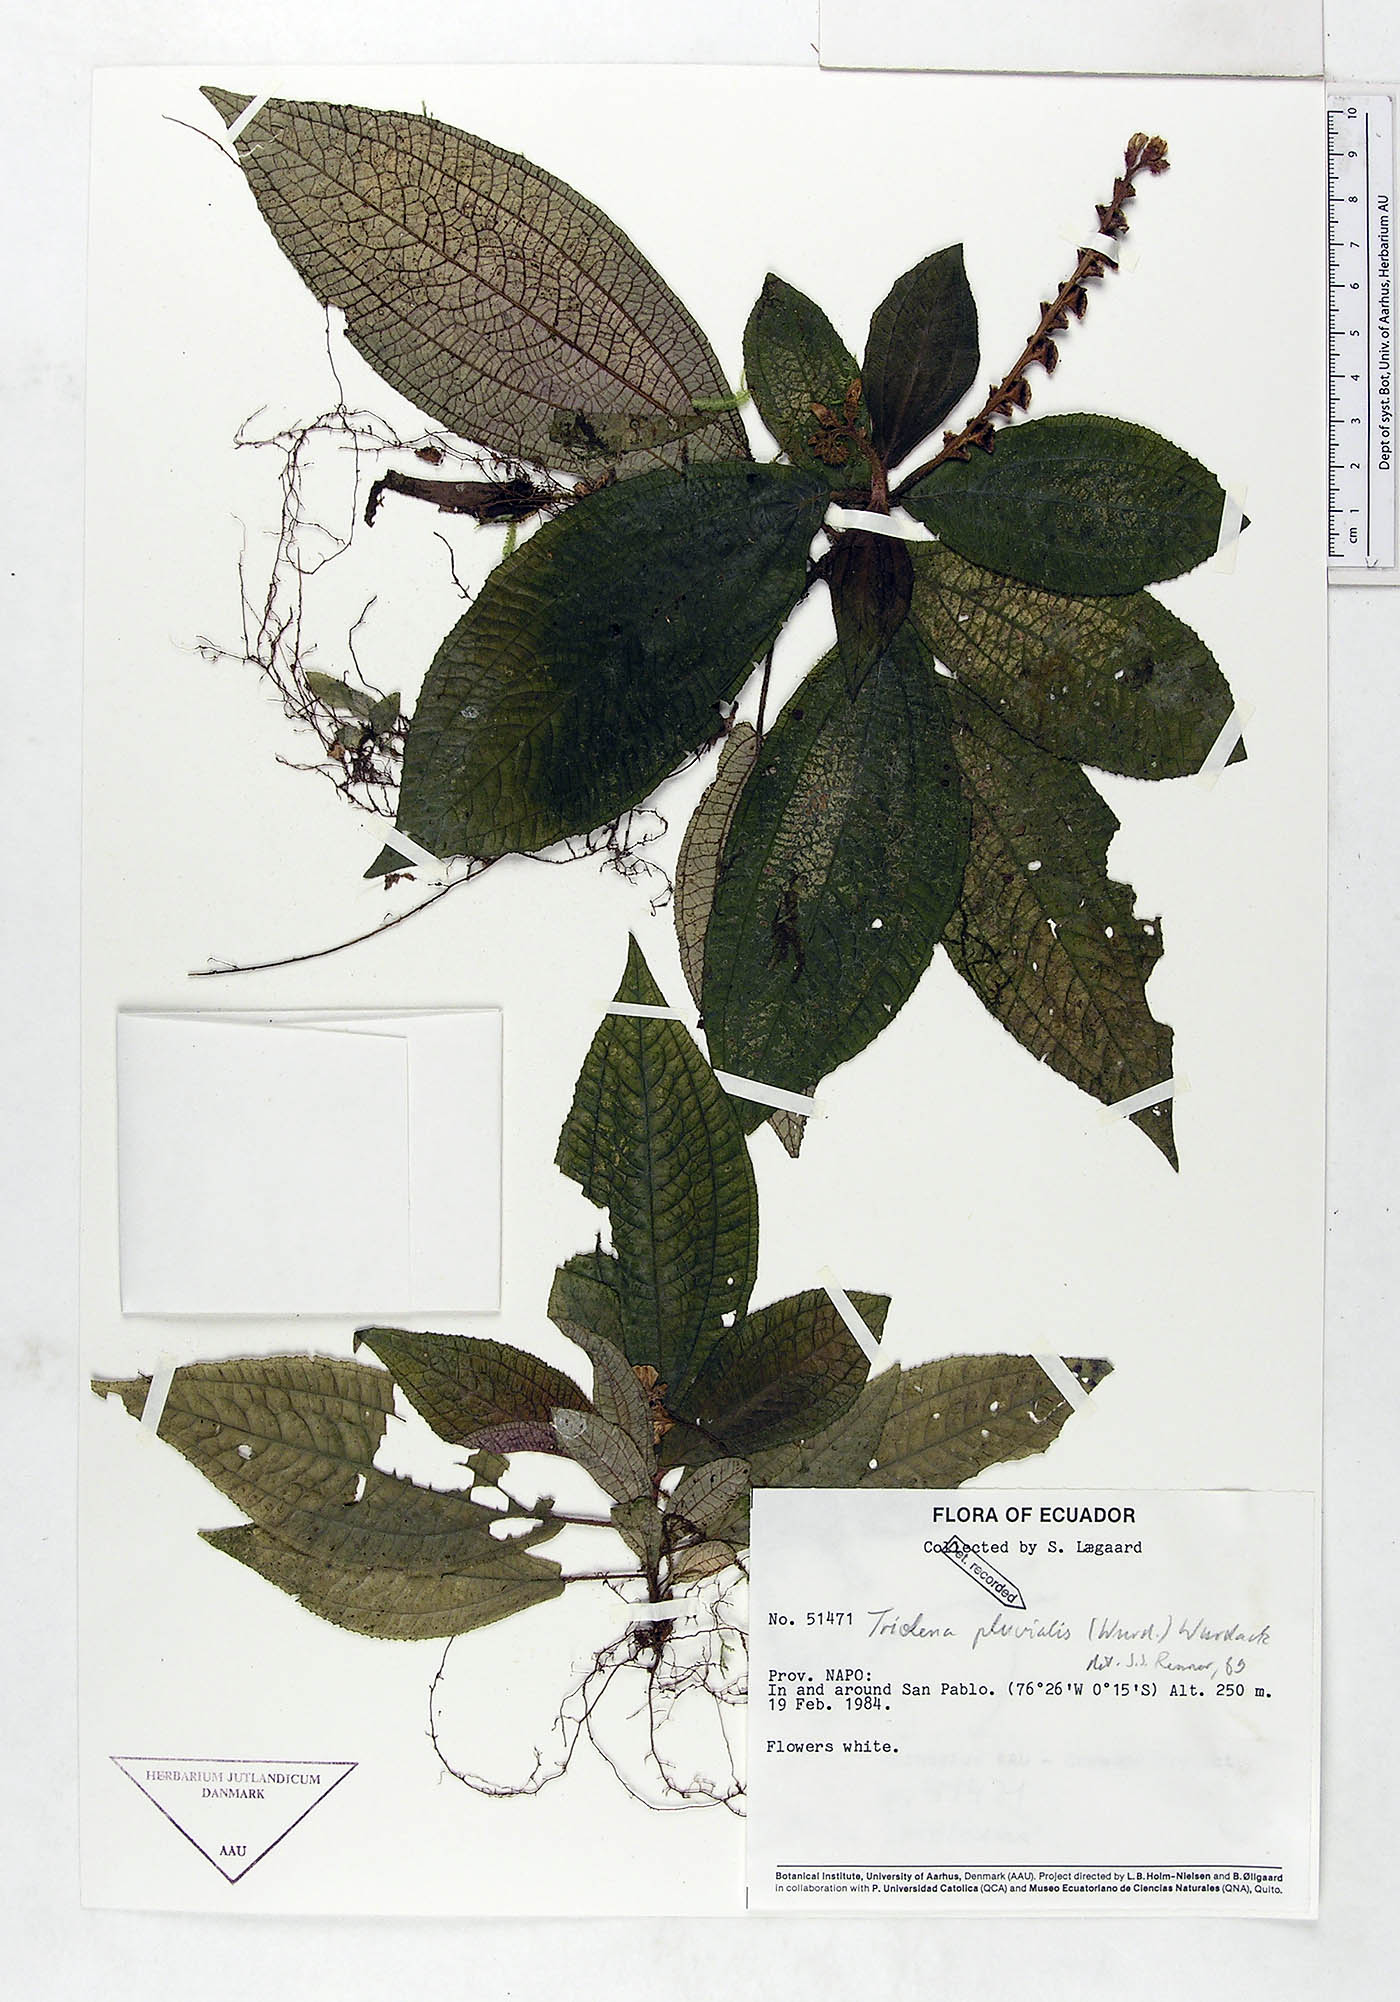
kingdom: Plantae
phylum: Tracheophyta
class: Magnoliopsida
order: Myrtales
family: Melastomataceae
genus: Triolena
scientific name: Triolena pluvialis
